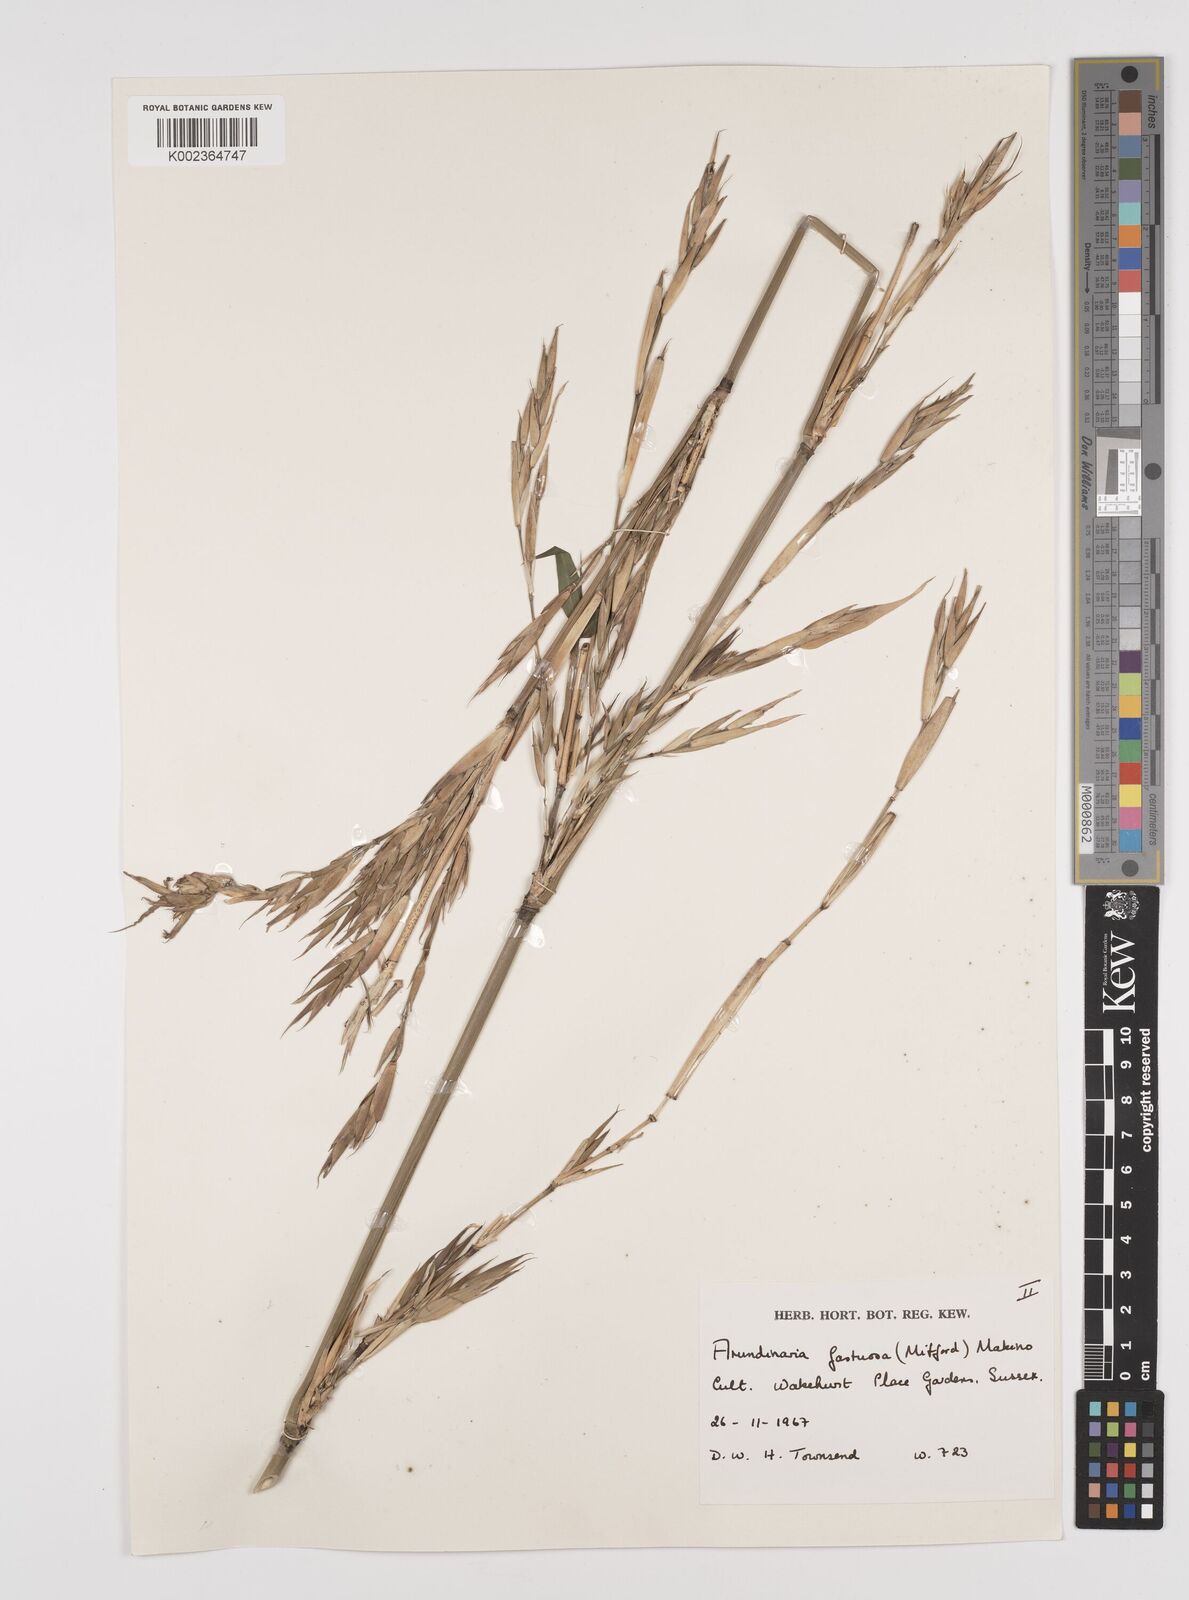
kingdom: Plantae
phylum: Tracheophyta
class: Liliopsida
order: Poales
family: Poaceae
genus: Semiarundinaria
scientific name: Semiarundinaria fastuosa
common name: Narihira bamboo
